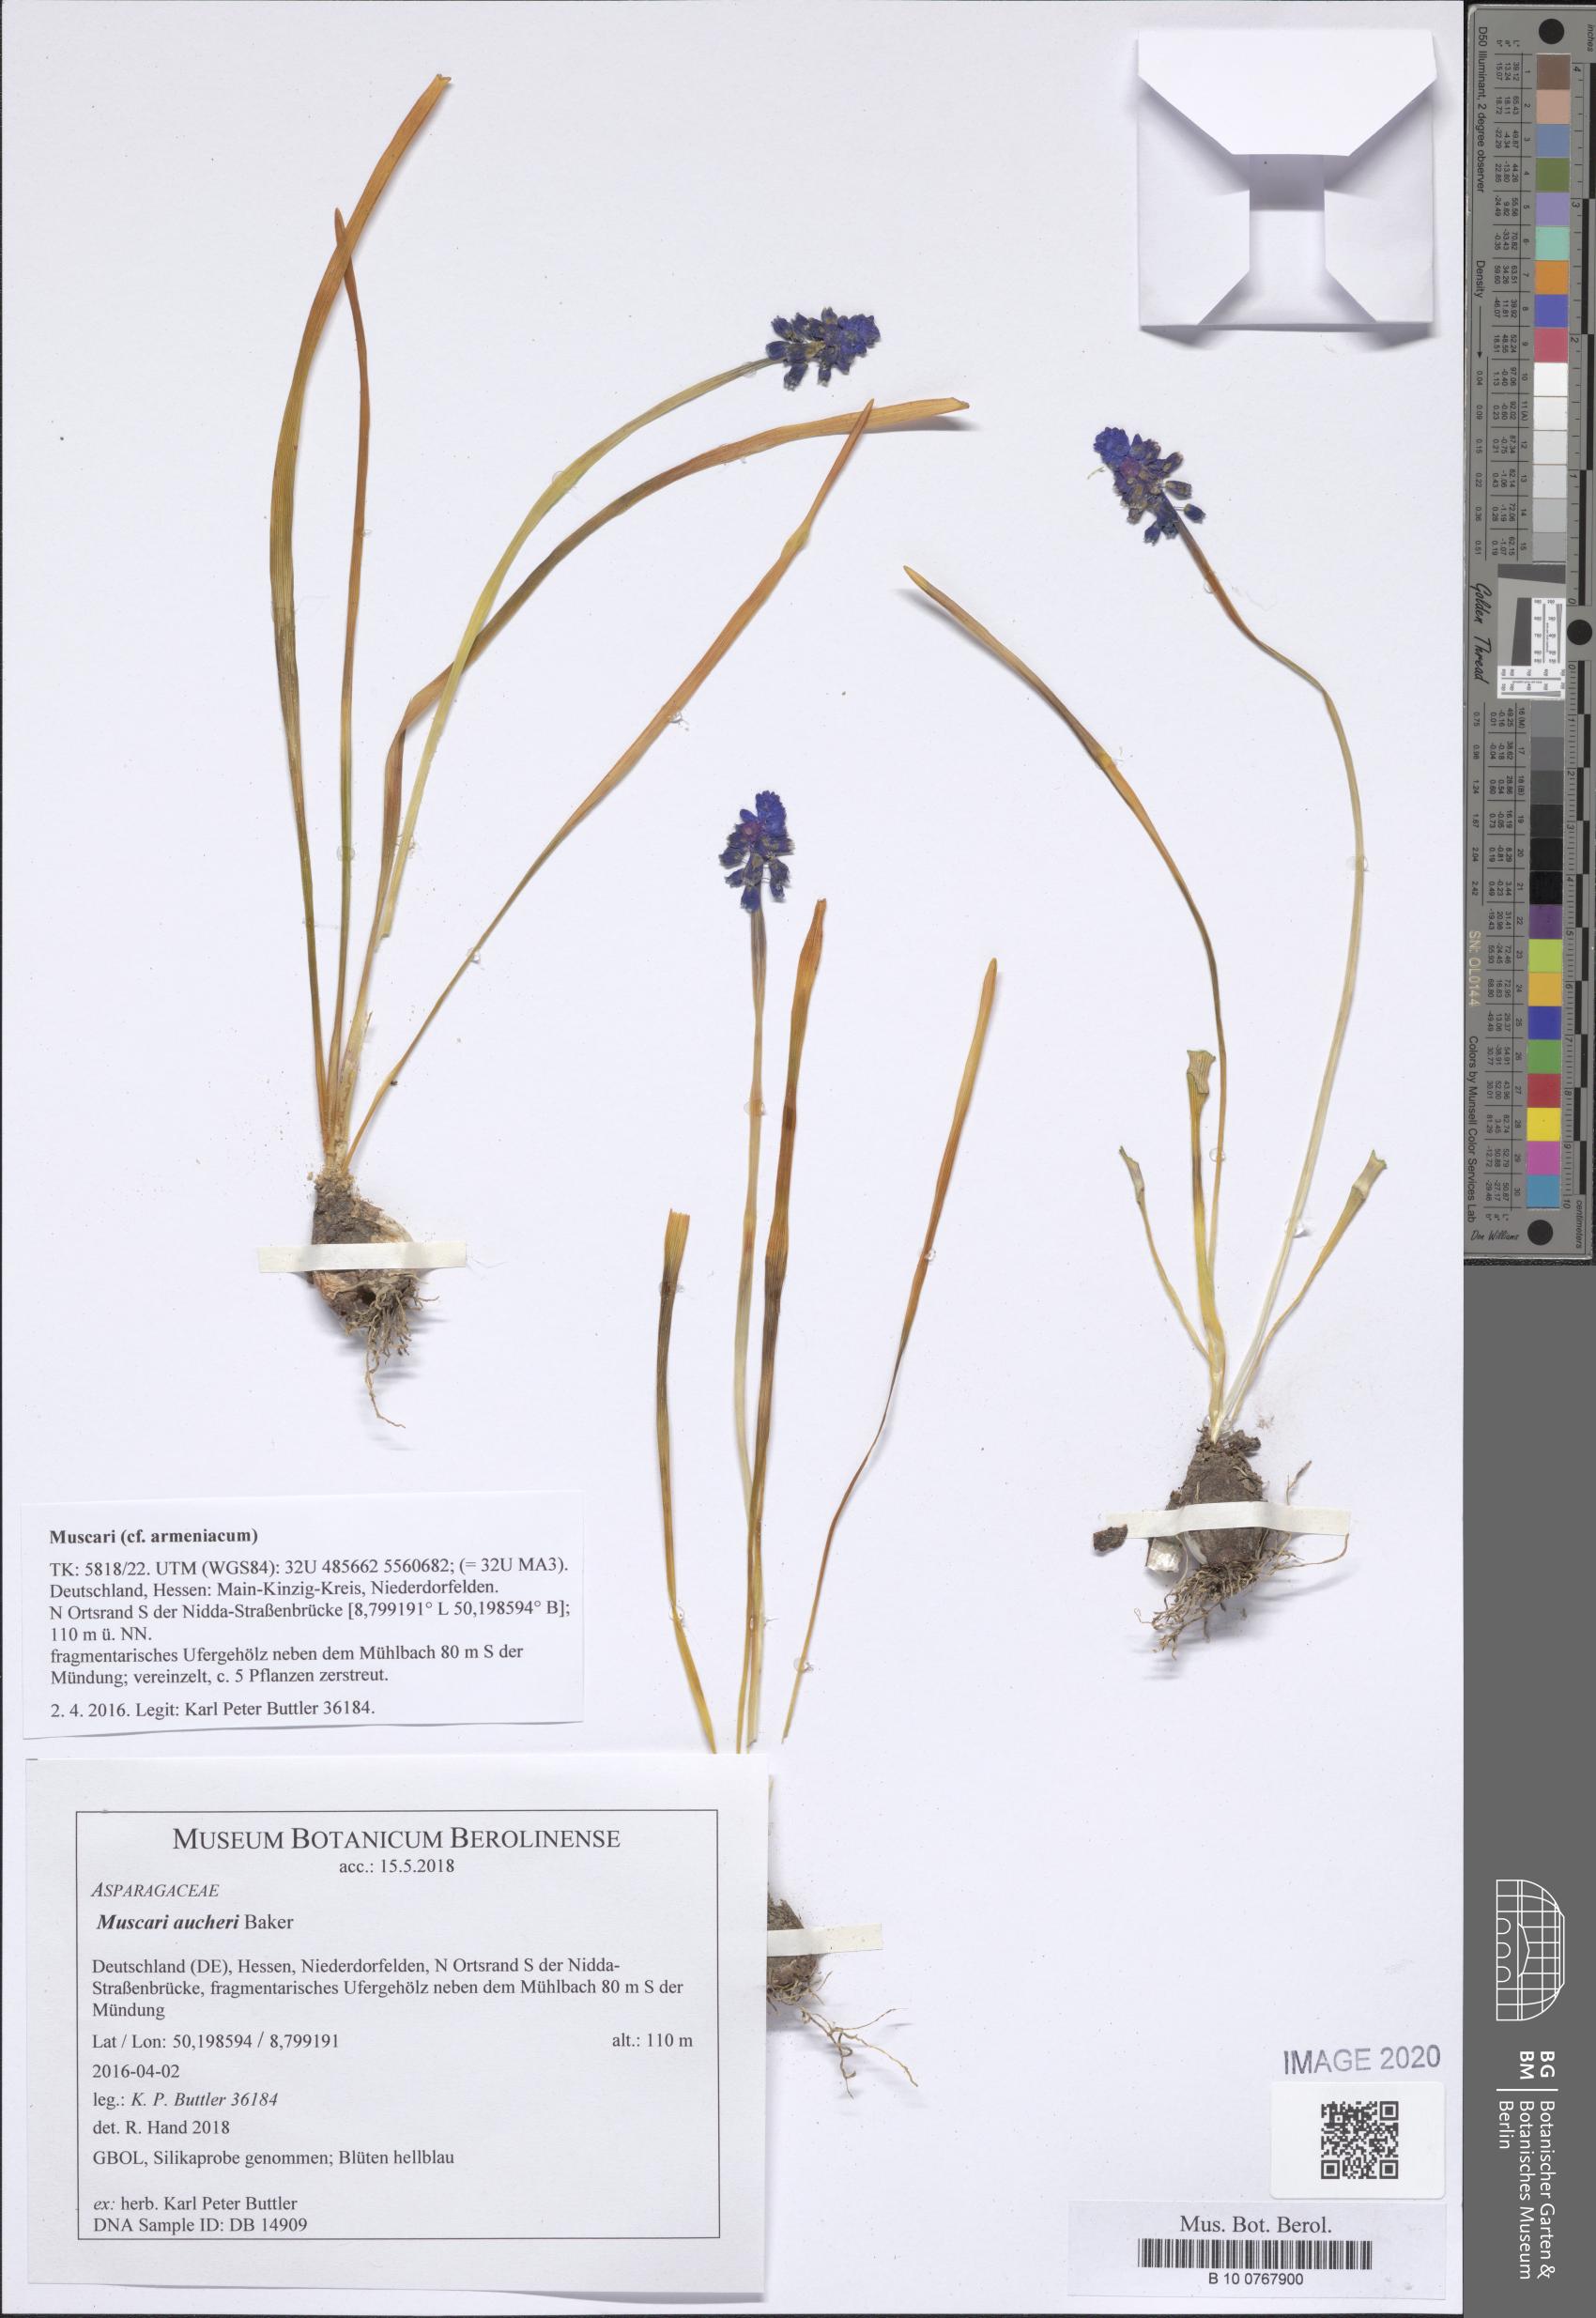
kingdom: Plantae
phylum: Tracheophyta
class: Liliopsida
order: Asparagales
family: Asparagaceae
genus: Muscari
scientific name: Muscari aucheri
